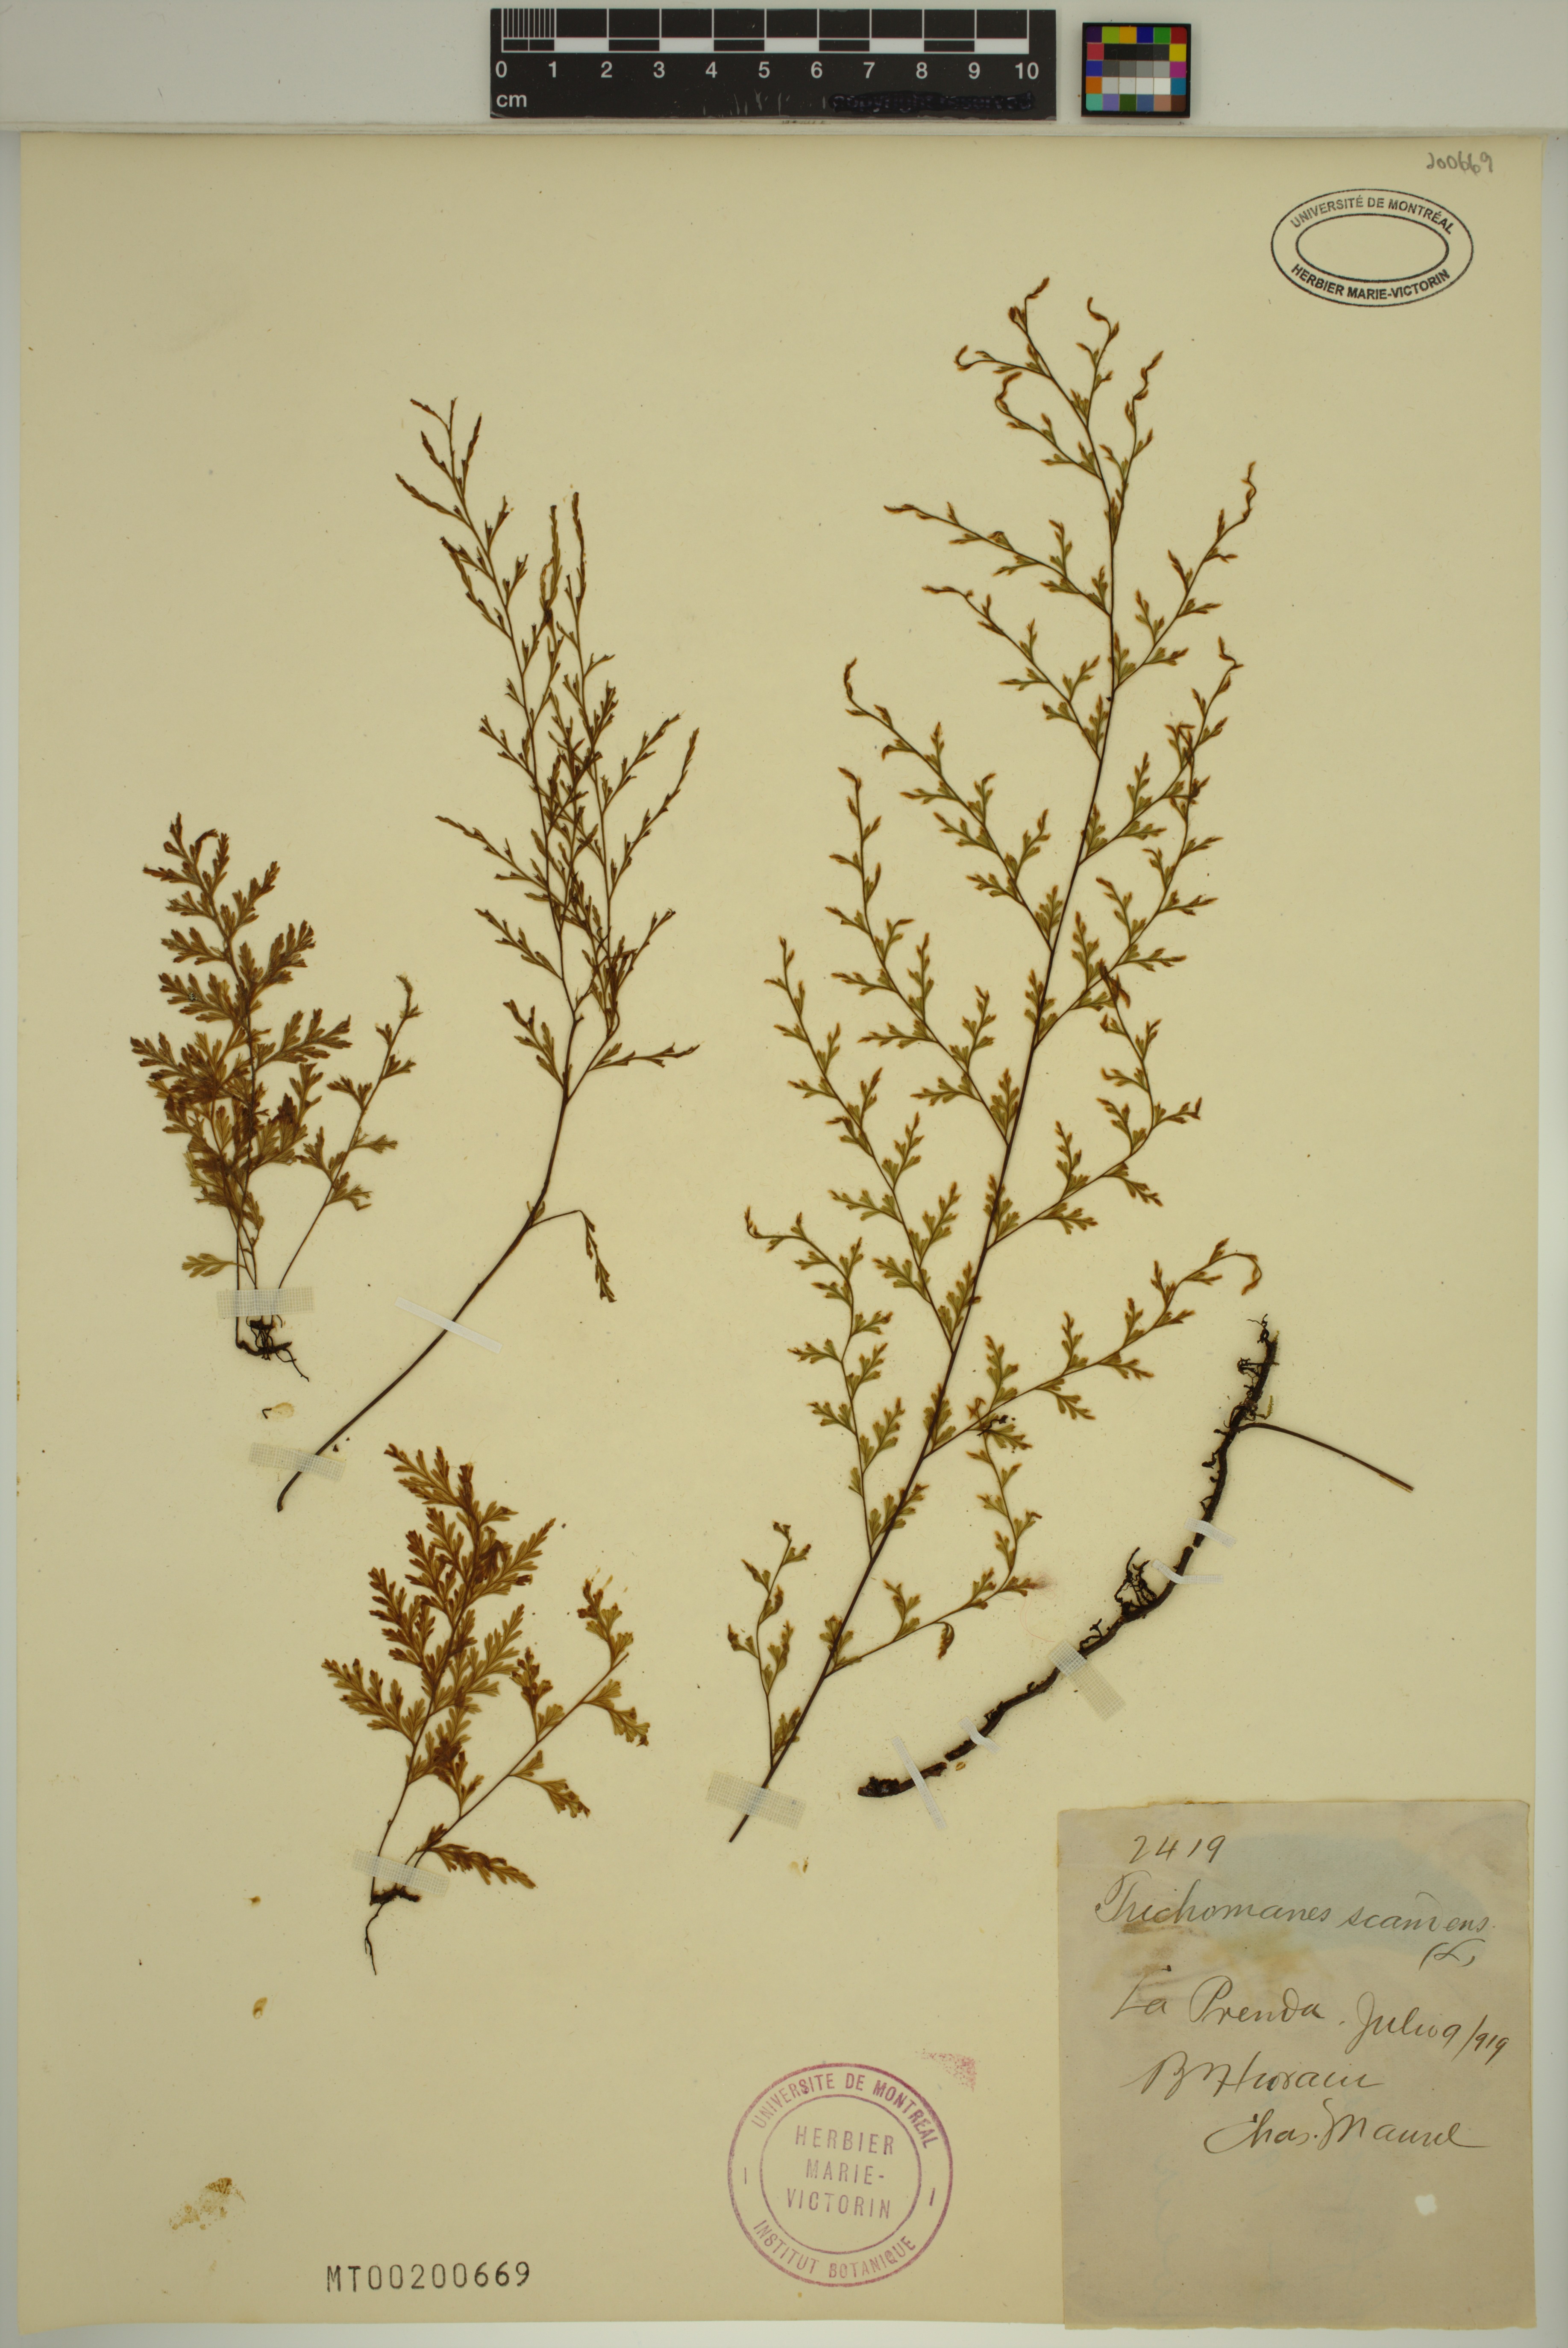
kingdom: Plantae
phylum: Tracheophyta
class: Polypodiopsida
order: Hymenophyllales
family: Hymenophyllaceae
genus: Trichomanes
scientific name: Trichomanes scandens
